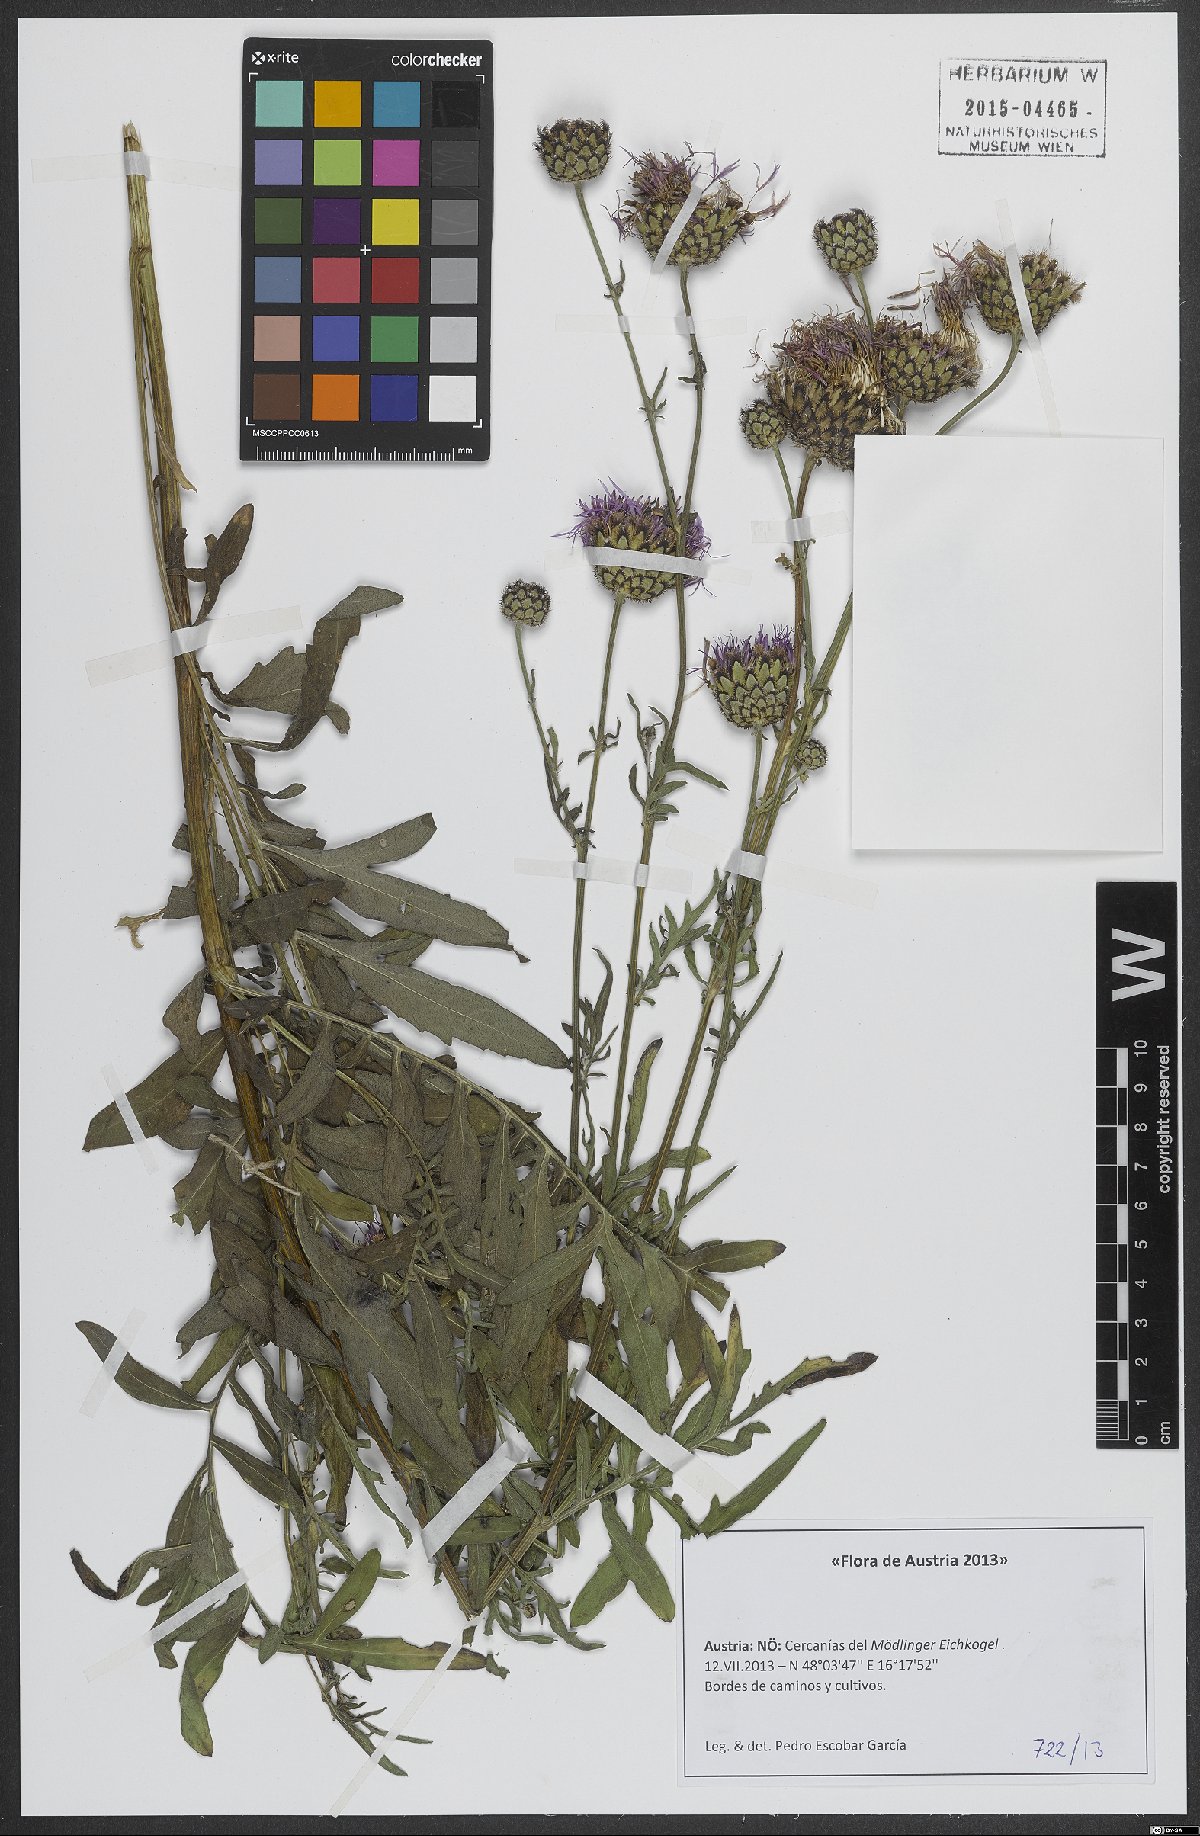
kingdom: Plantae
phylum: Tracheophyta
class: Magnoliopsida
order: Asterales
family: Asteraceae
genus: Centaurea
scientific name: Centaurea jacea
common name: Brown knapweed
